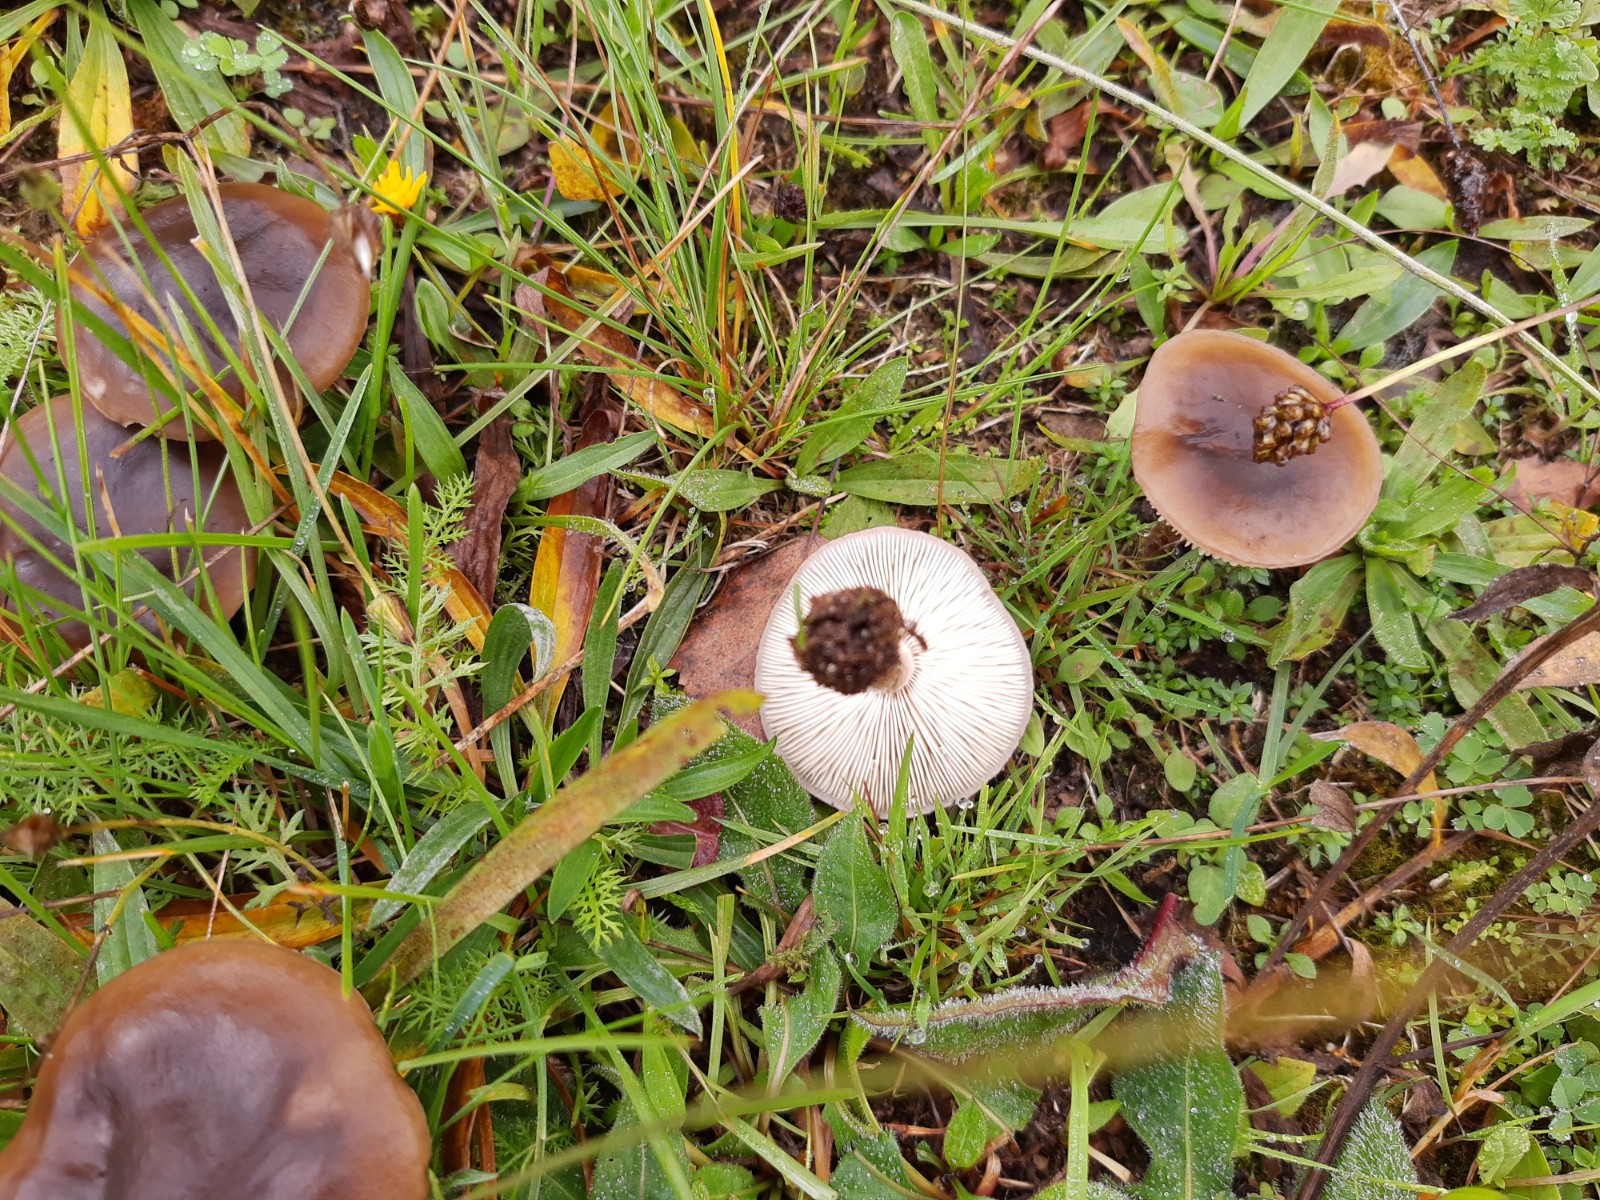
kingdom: Fungi
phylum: Basidiomycota
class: Agaricomycetes
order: Agaricales
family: Tricholomataceae
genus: Melanoleuca
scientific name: Melanoleuca polioleuca
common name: almindelig munkehat
